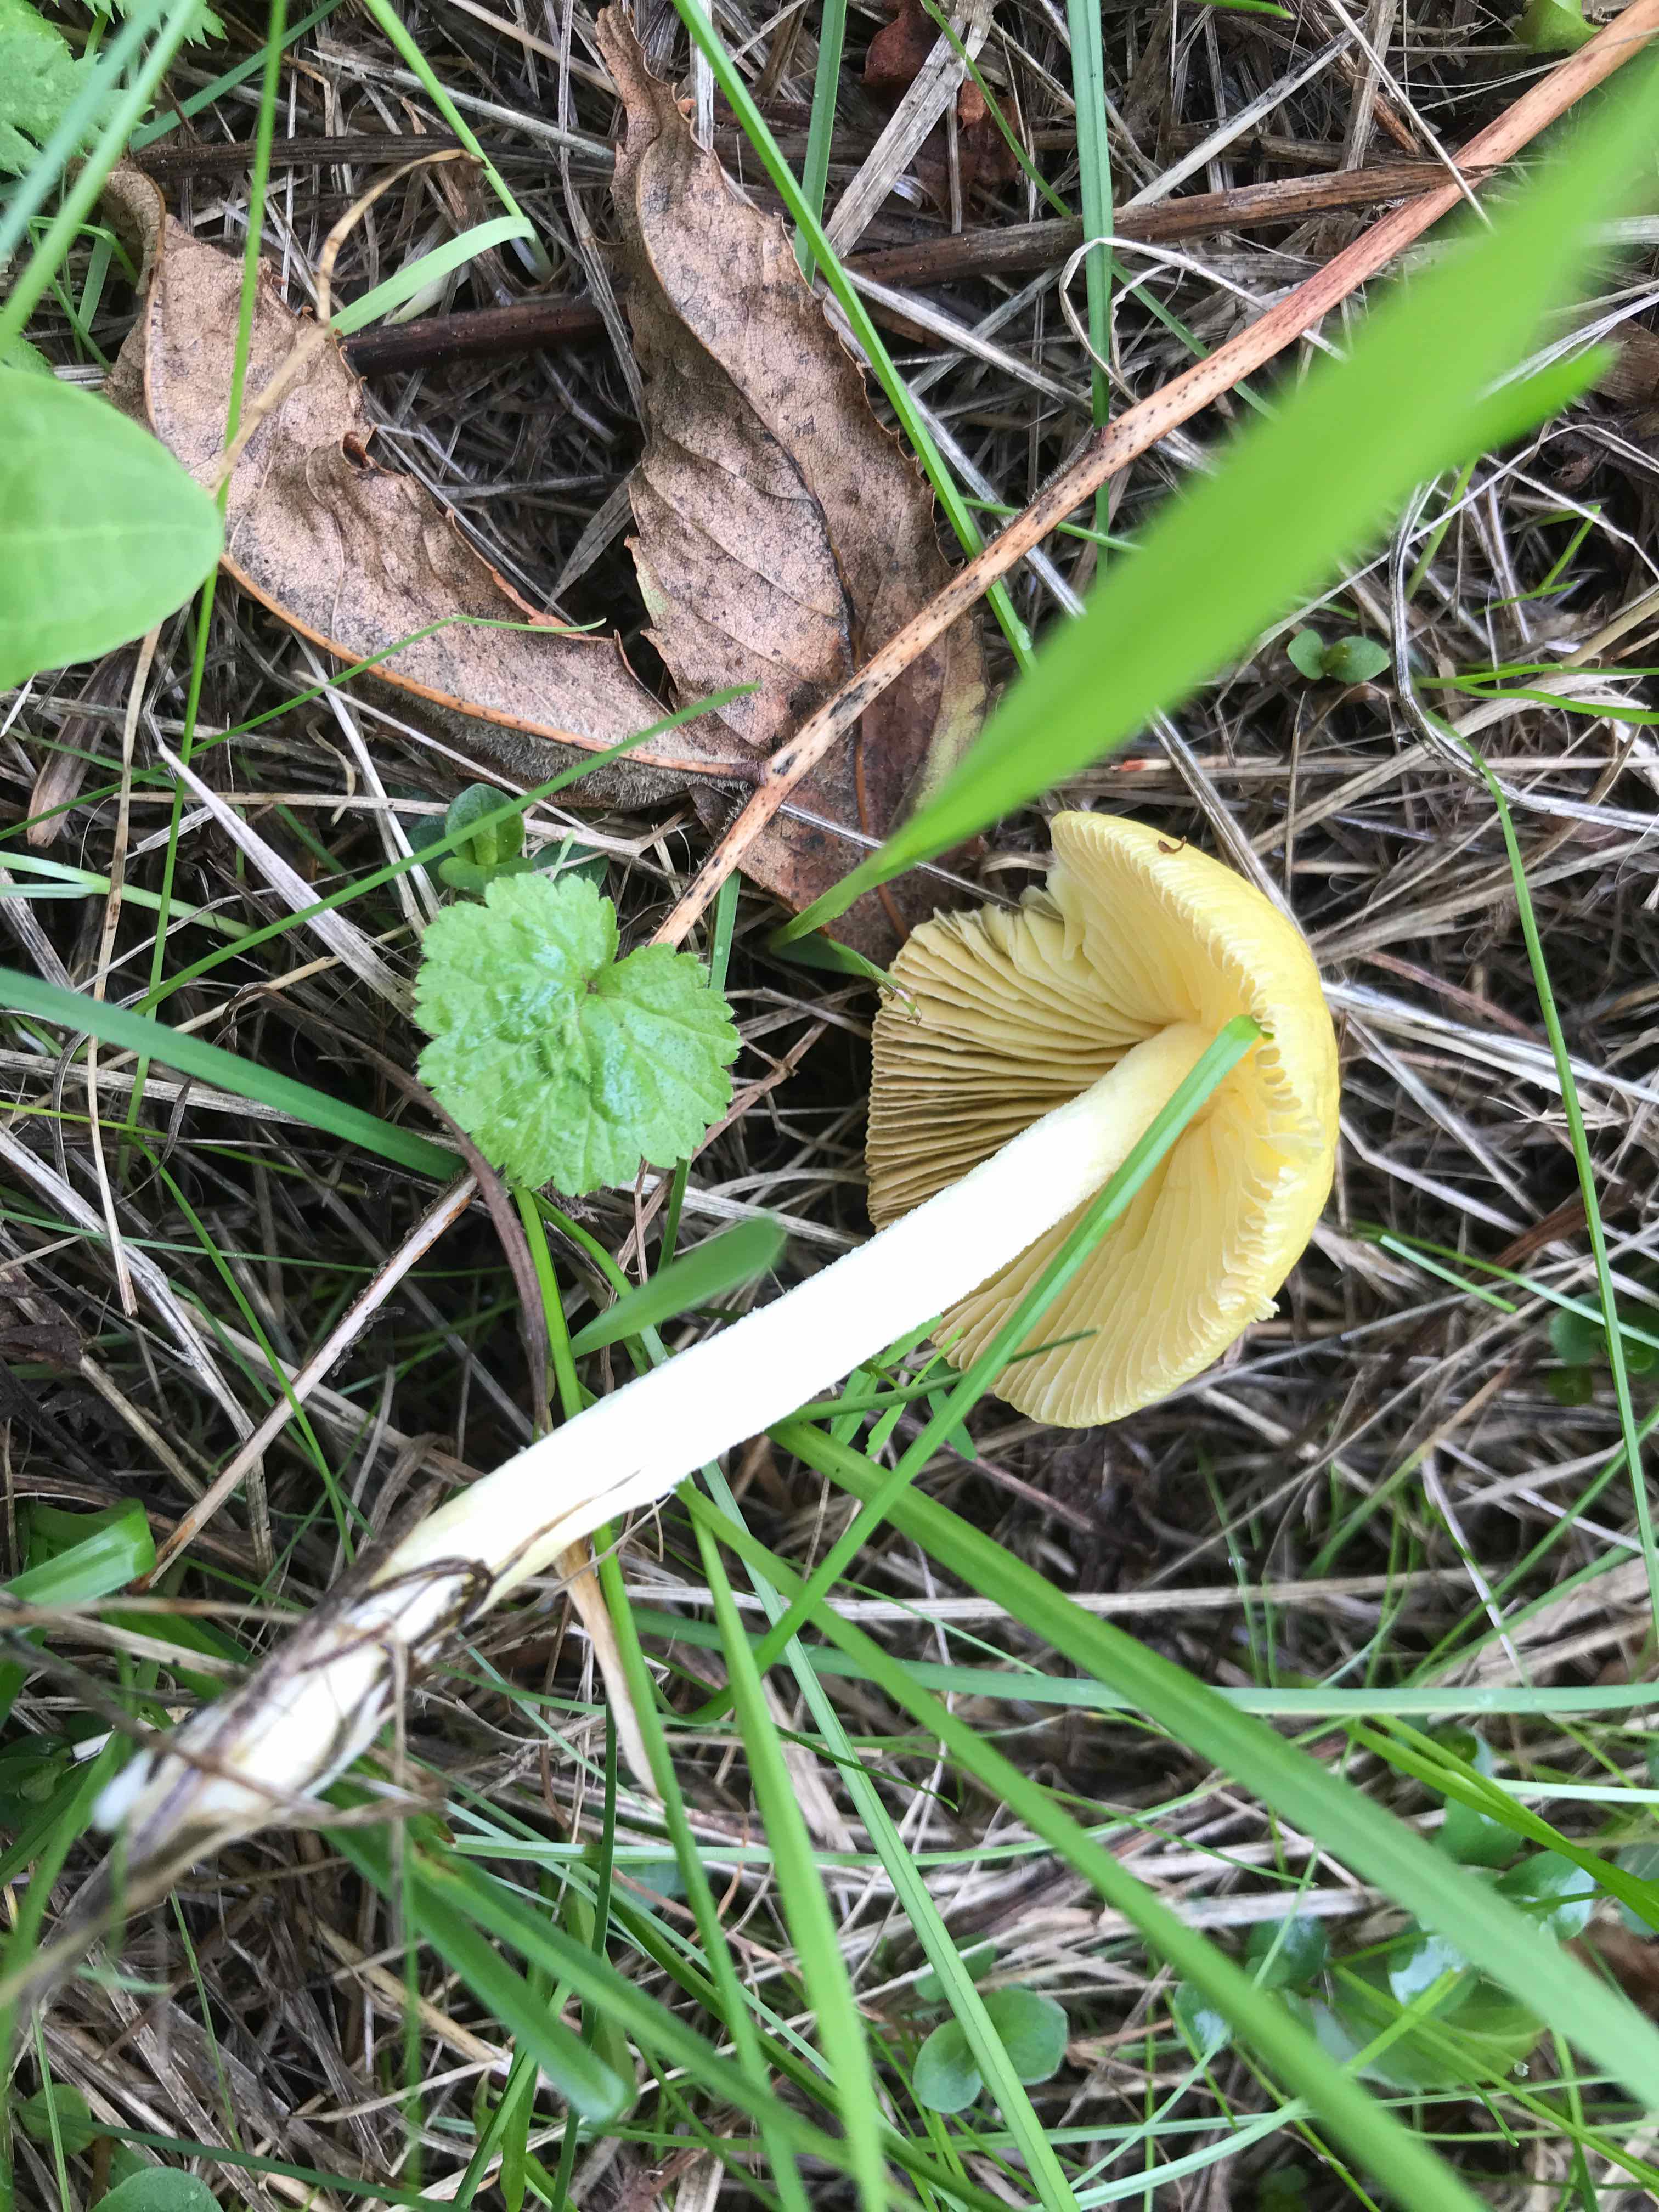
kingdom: Fungi
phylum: Basidiomycota
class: Agaricomycetes
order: Agaricales
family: Bolbitiaceae
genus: Bolbitius
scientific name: Bolbitius titubans
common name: almindelig gulhat
